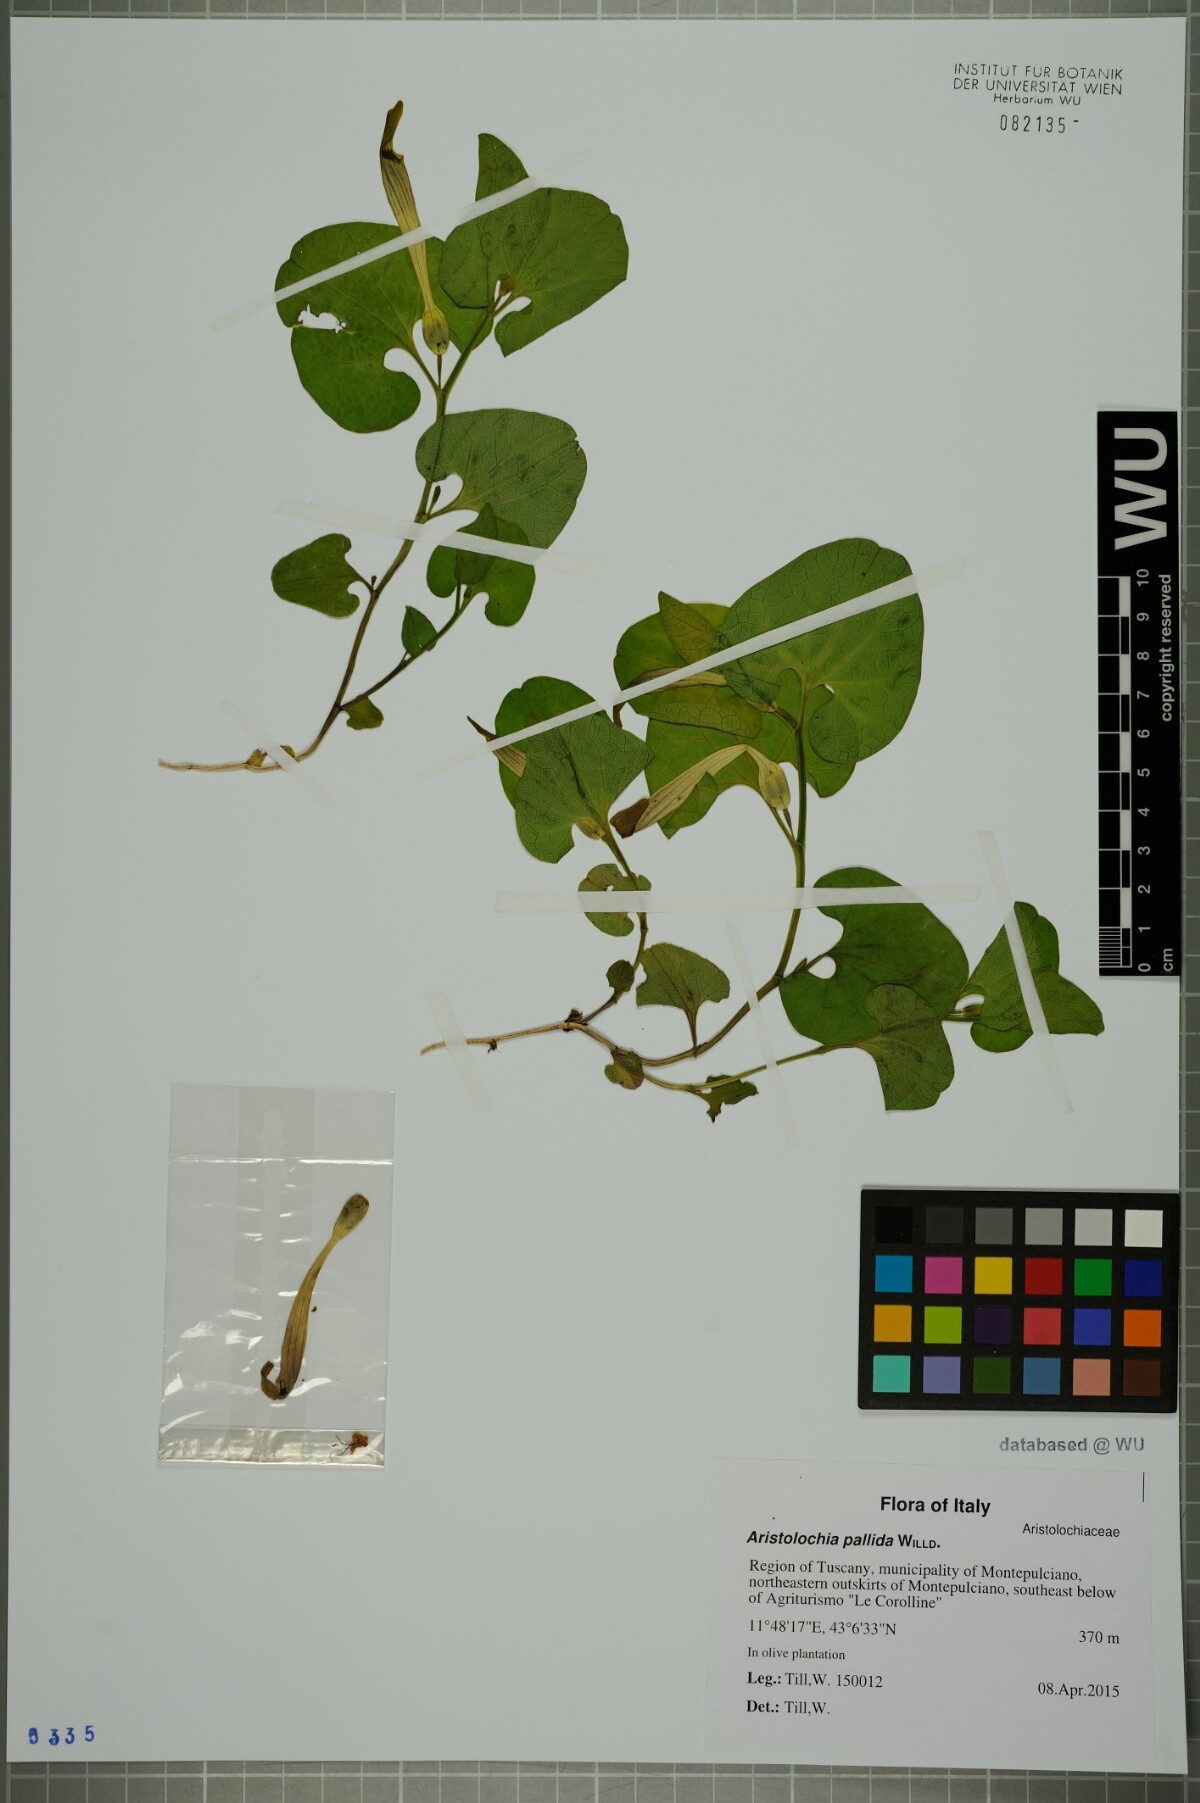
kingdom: Plantae
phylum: Tracheophyta
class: Magnoliopsida
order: Piperales
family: Aristolochiaceae
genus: Aristolochia
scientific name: Aristolochia lutea
